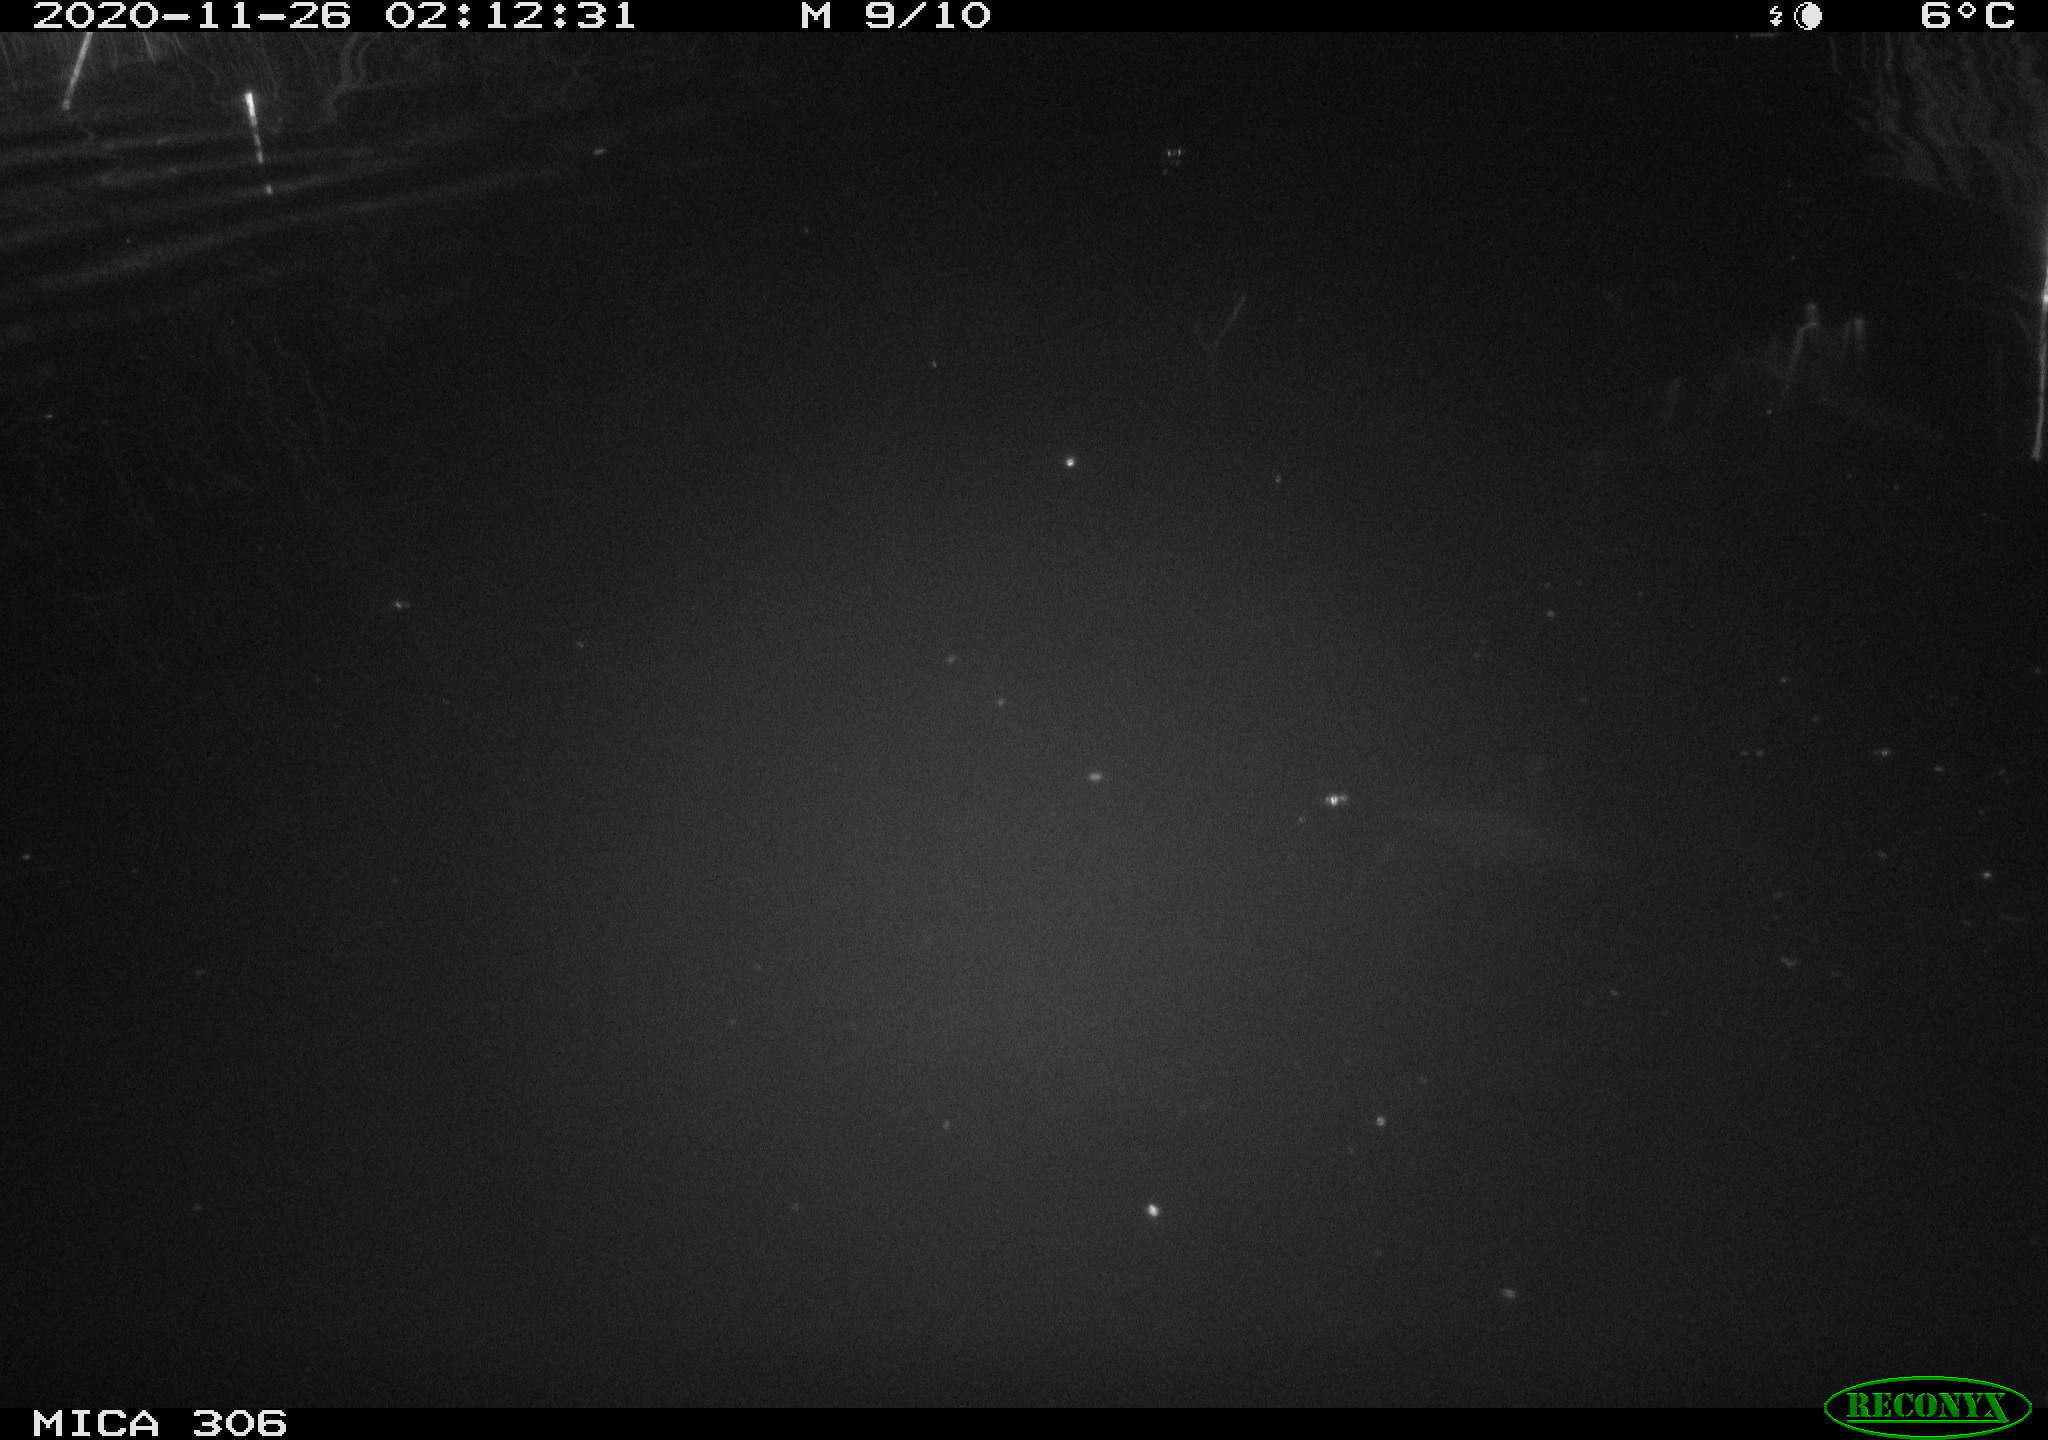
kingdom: Animalia
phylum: Chordata
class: Mammalia
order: Rodentia
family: Muridae
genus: Rattus
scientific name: Rattus norvegicus
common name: Brown rat
